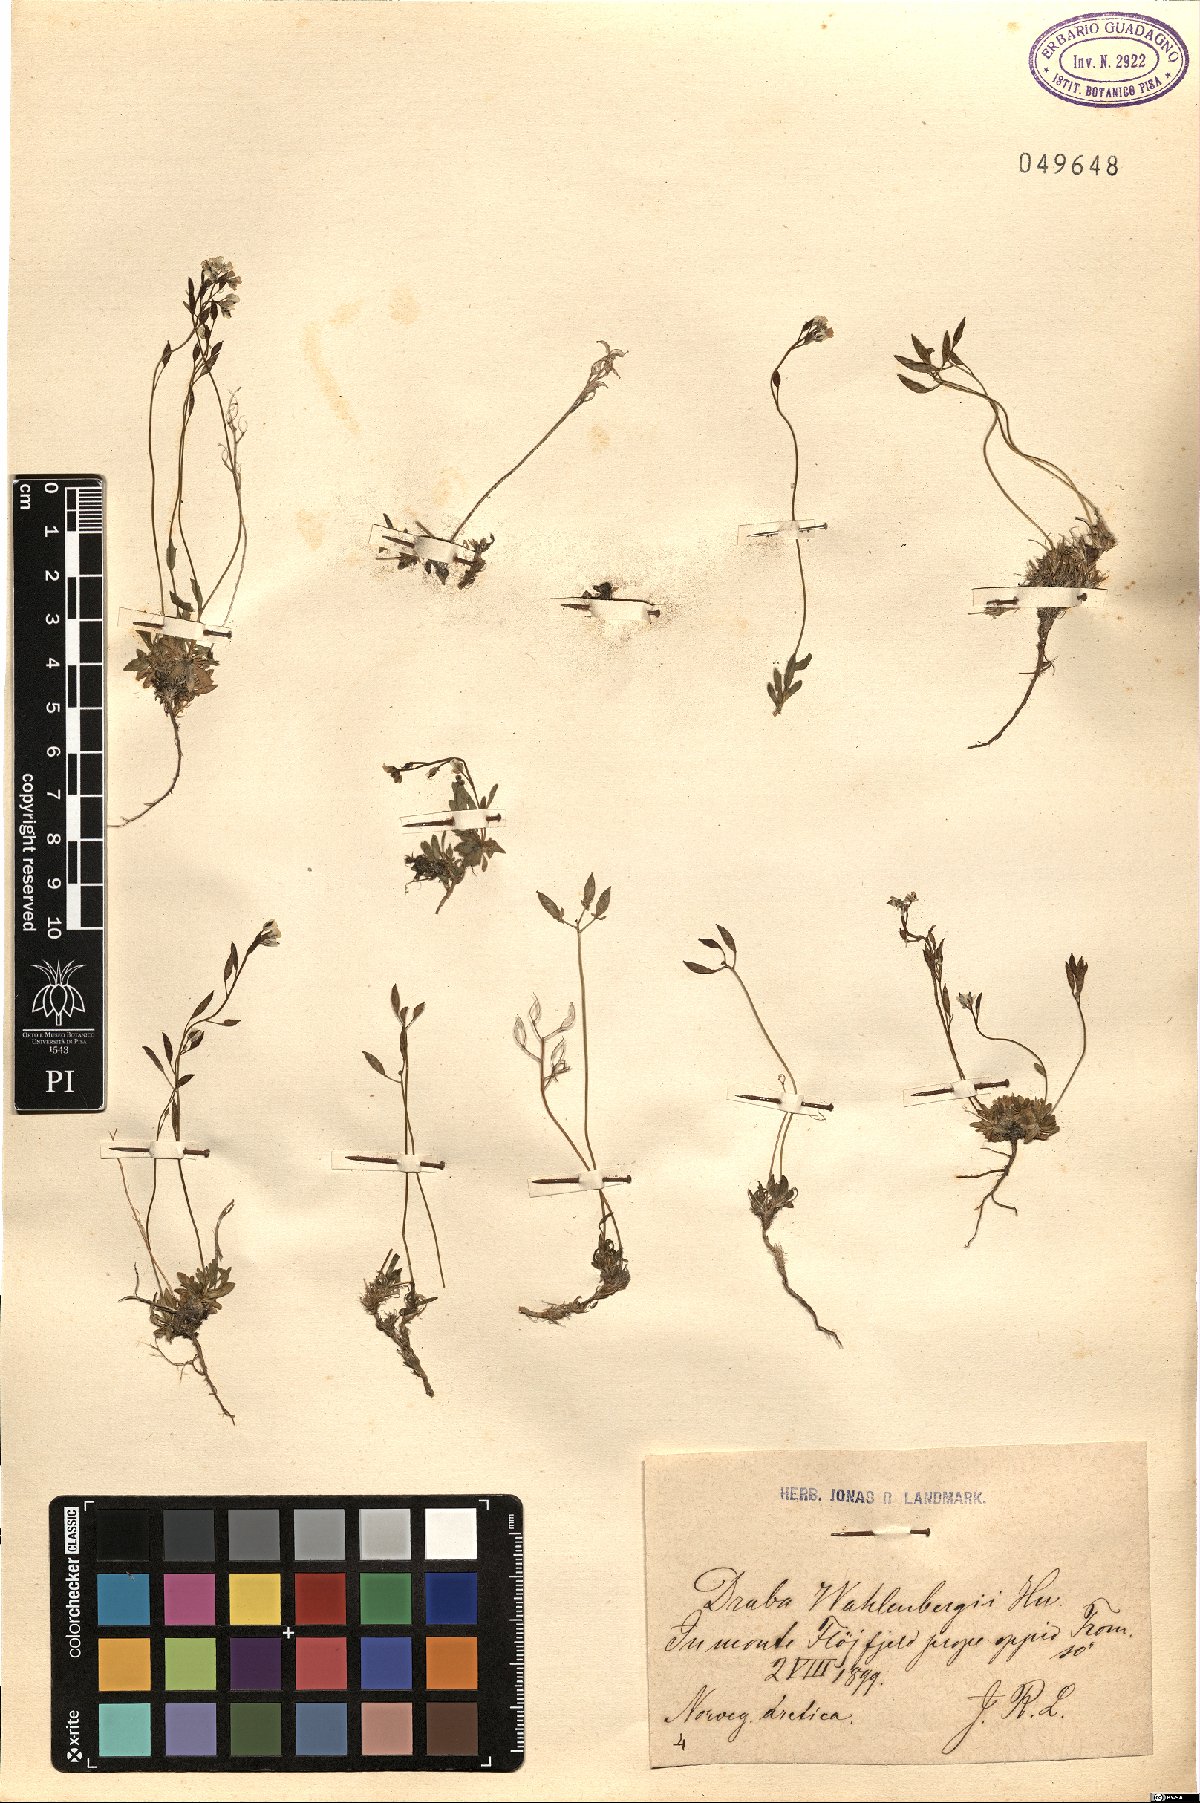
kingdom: Plantae
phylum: Tracheophyta
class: Magnoliopsida
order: Brassicales
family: Brassicaceae
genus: Draba
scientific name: Draba lactea
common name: Milky draba
